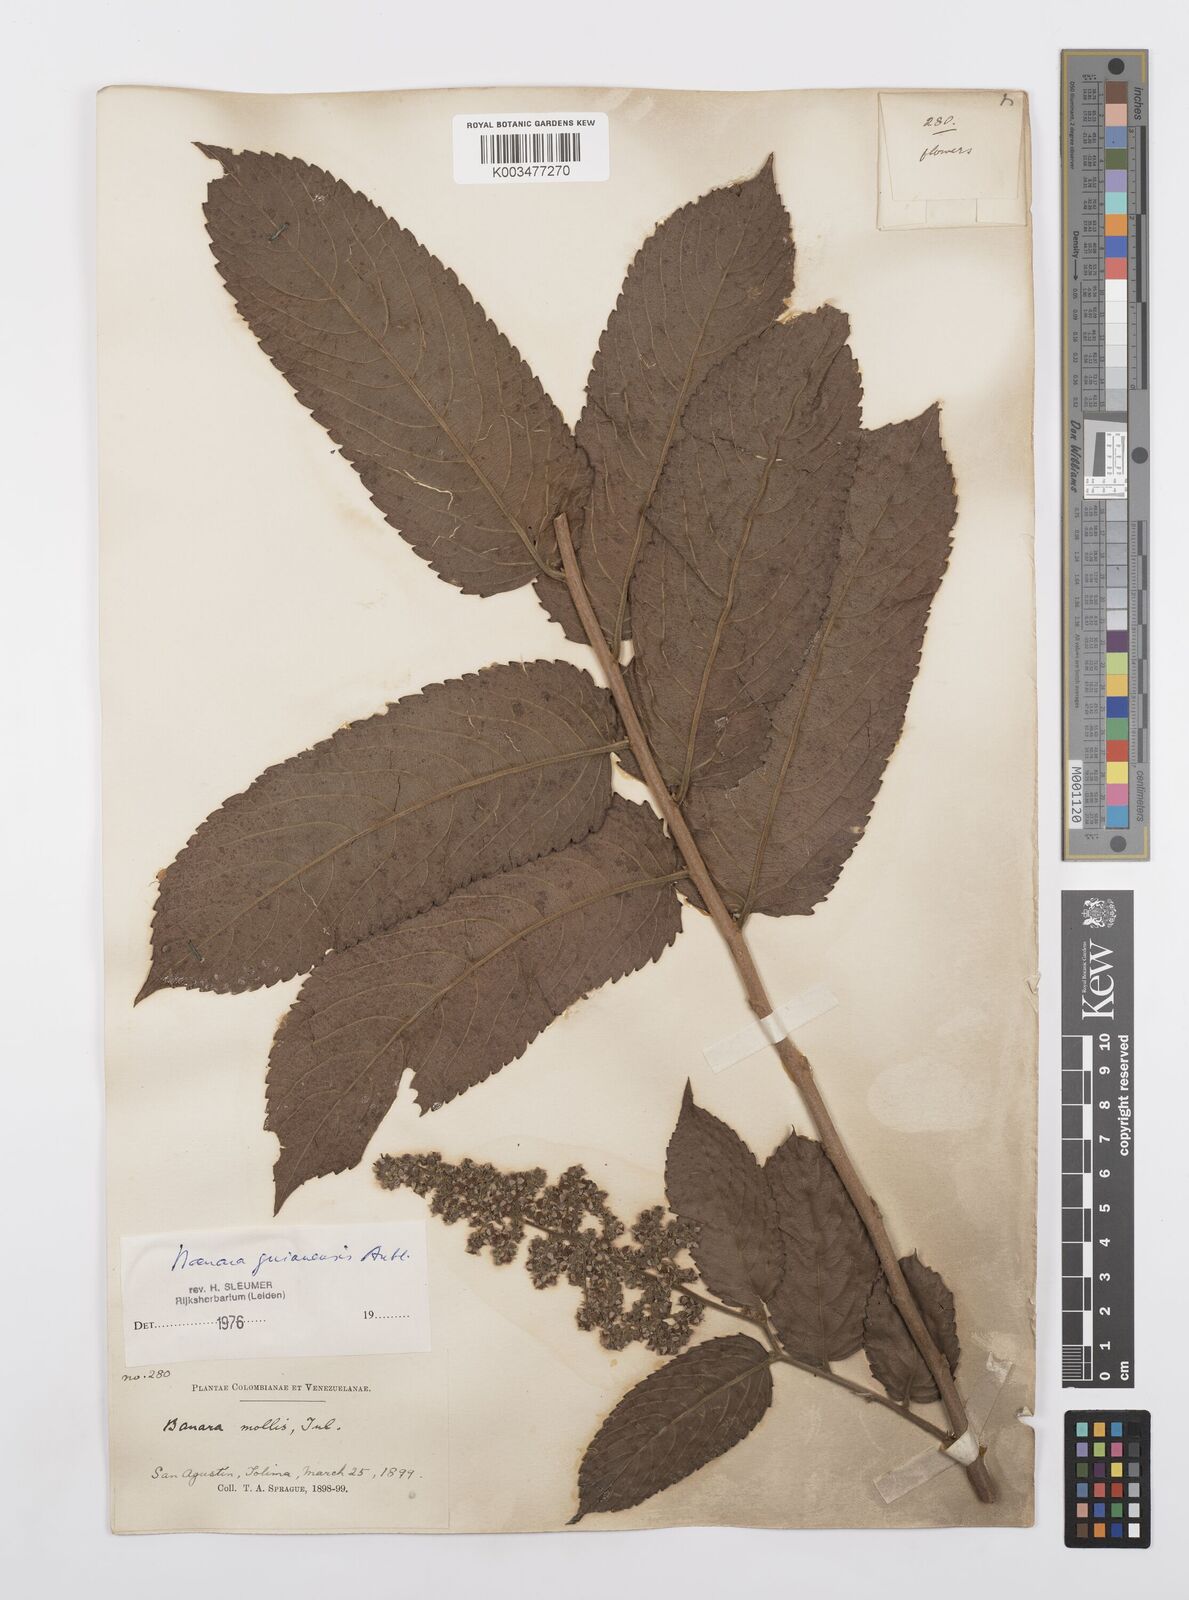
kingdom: Plantae
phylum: Tracheophyta
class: Magnoliopsida
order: Malpighiales
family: Salicaceae
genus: Banara
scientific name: Banara guianensis
